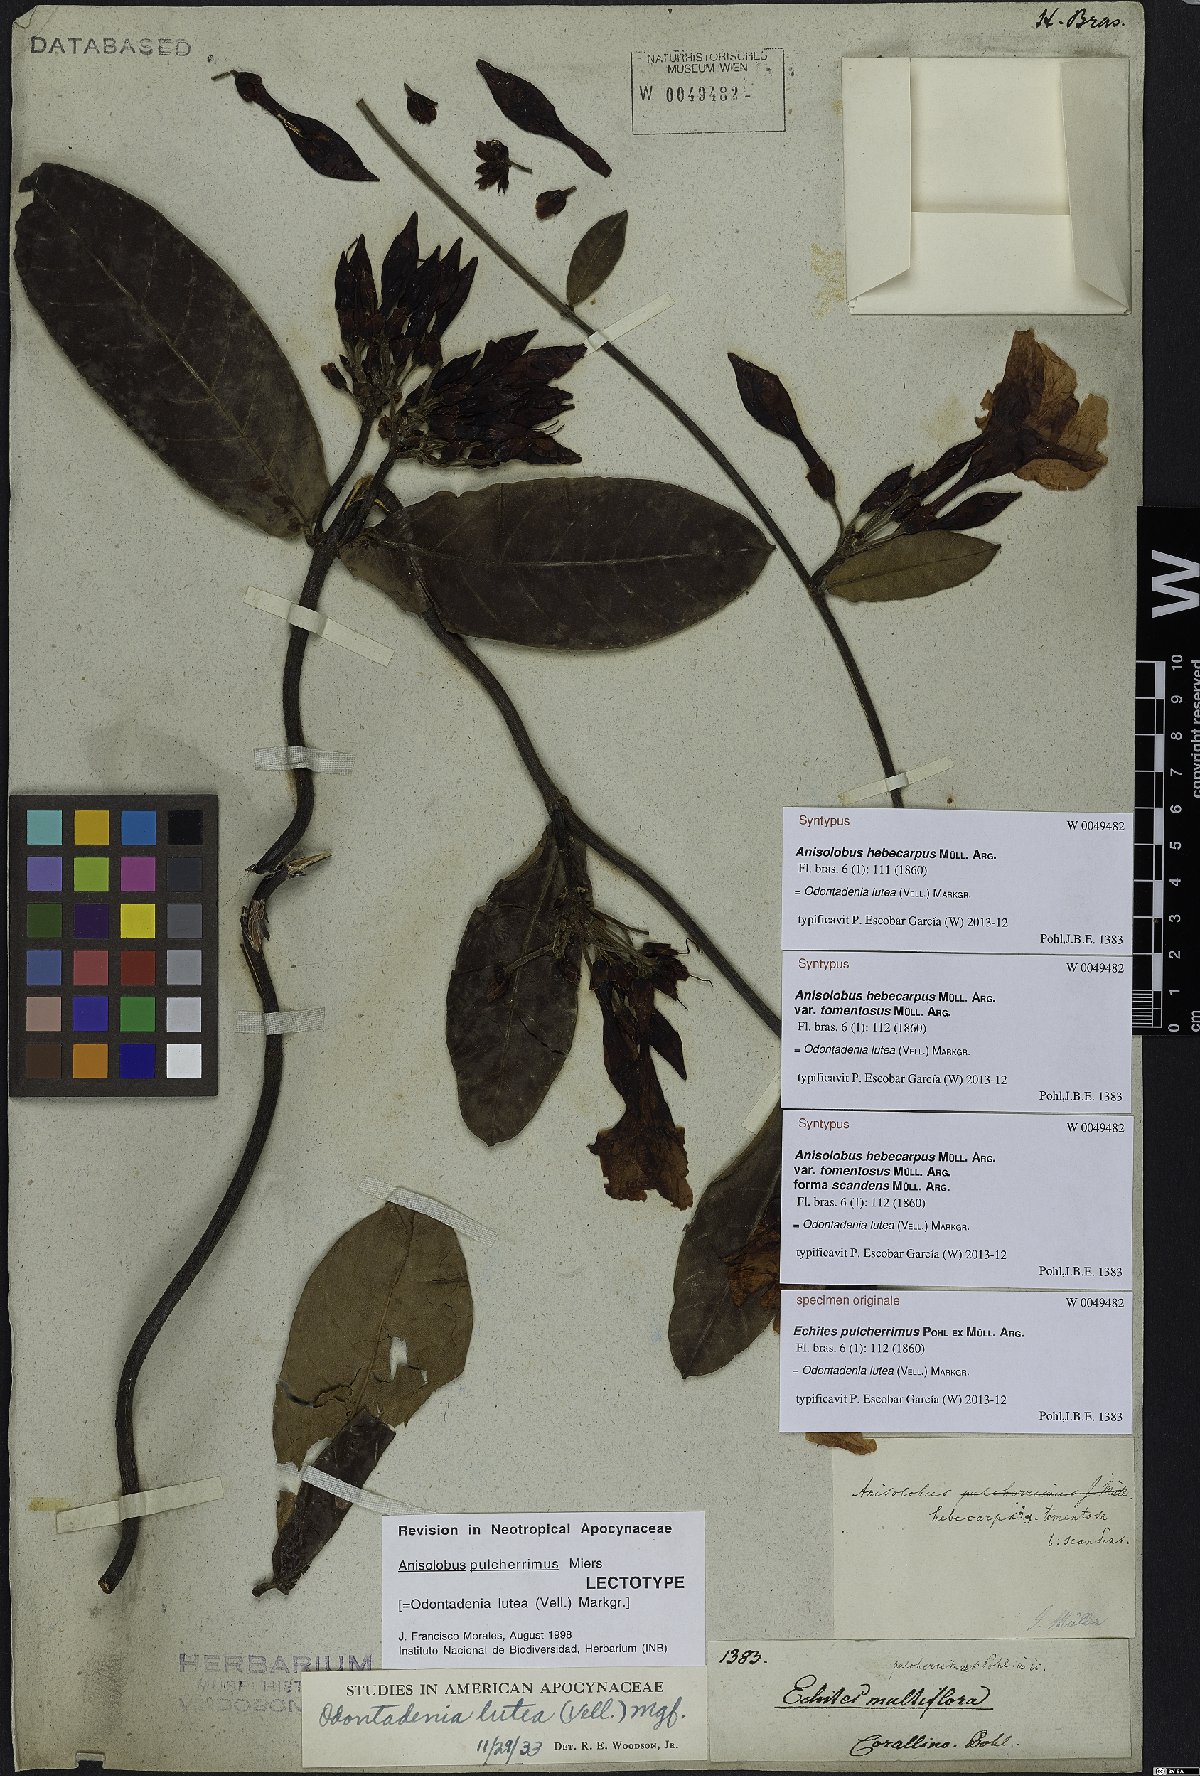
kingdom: Plantae
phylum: Tracheophyta
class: Magnoliopsida
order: Gentianales
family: Apocynaceae
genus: Odontadenia
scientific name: Odontadenia lutea
